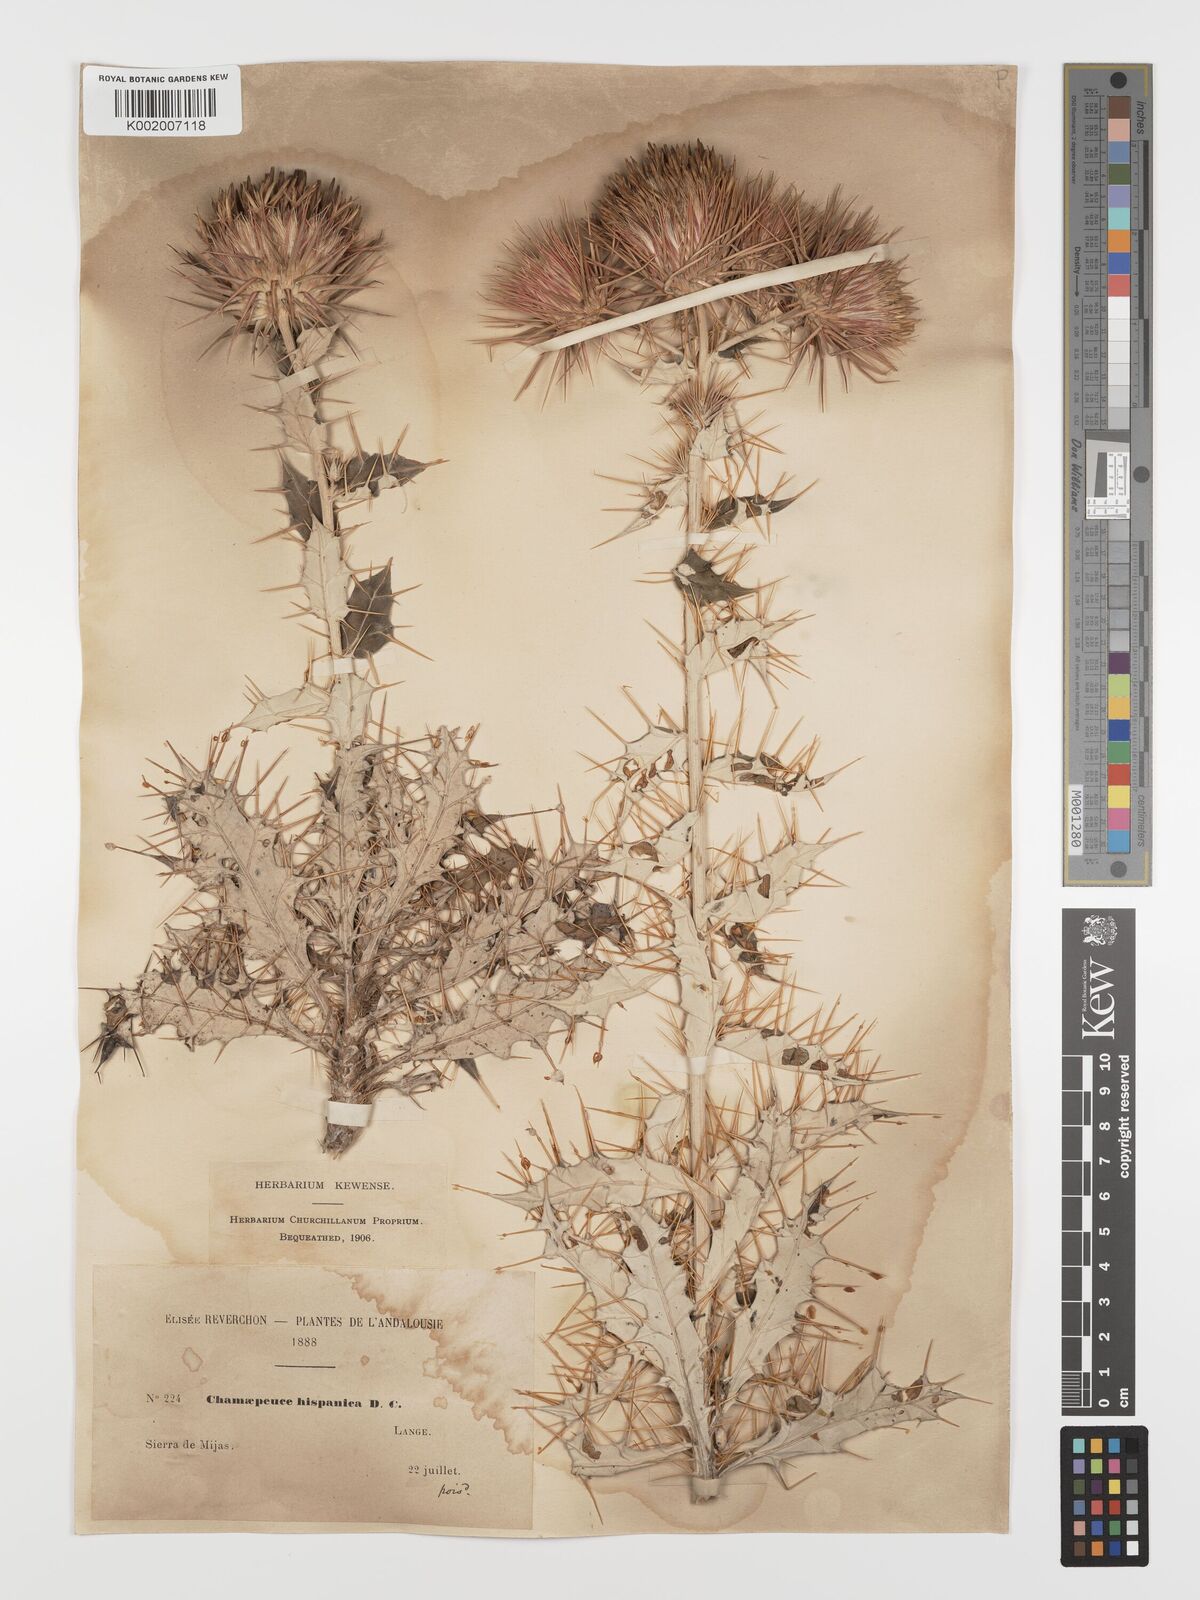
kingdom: Plantae
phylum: Tracheophyta
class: Magnoliopsida
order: Asterales
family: Asteraceae
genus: Ptilostemon
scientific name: Ptilostemon hispanicus
